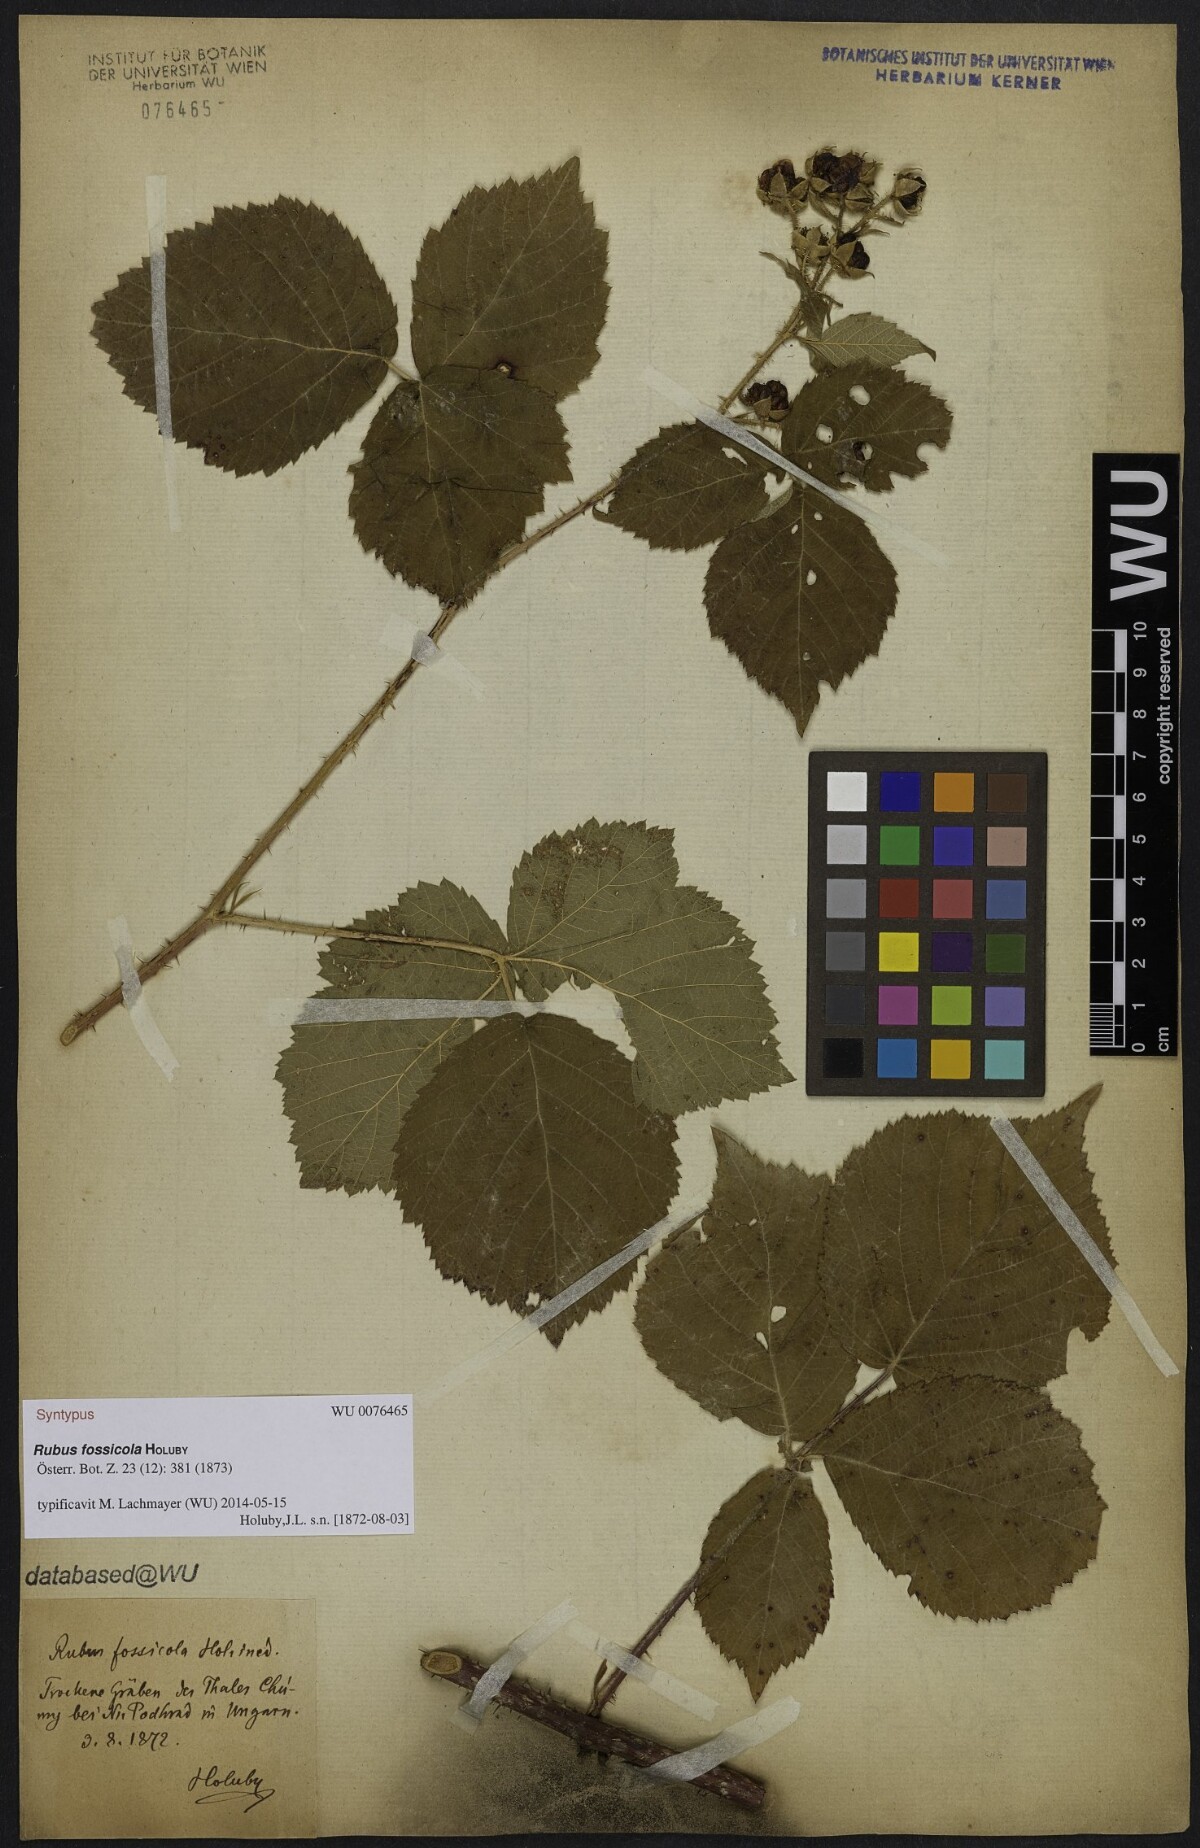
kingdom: Plantae
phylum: Tracheophyta
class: Magnoliopsida
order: Rosales
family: Rosaceae
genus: Rubus
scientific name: Rubus fossicola
